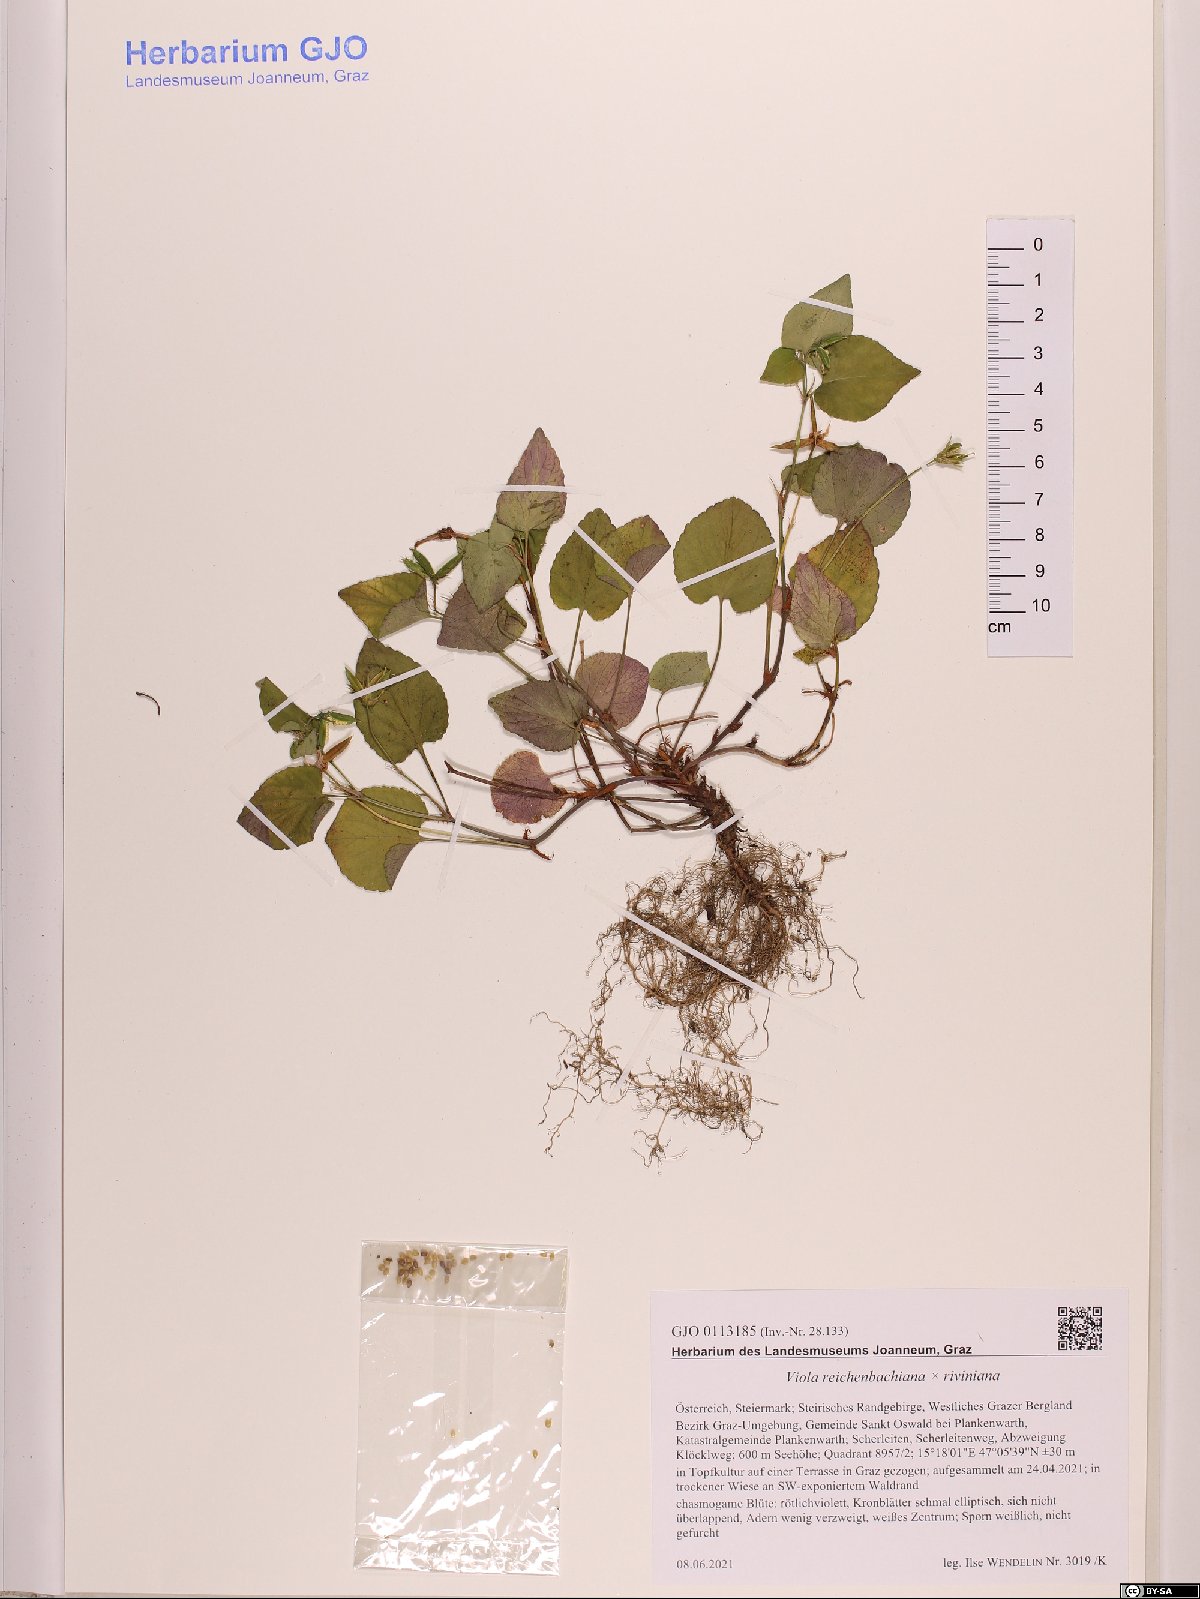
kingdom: Plantae
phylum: Tracheophyta
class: Magnoliopsida
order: Malpighiales
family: Violaceae
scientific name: Violaceae
